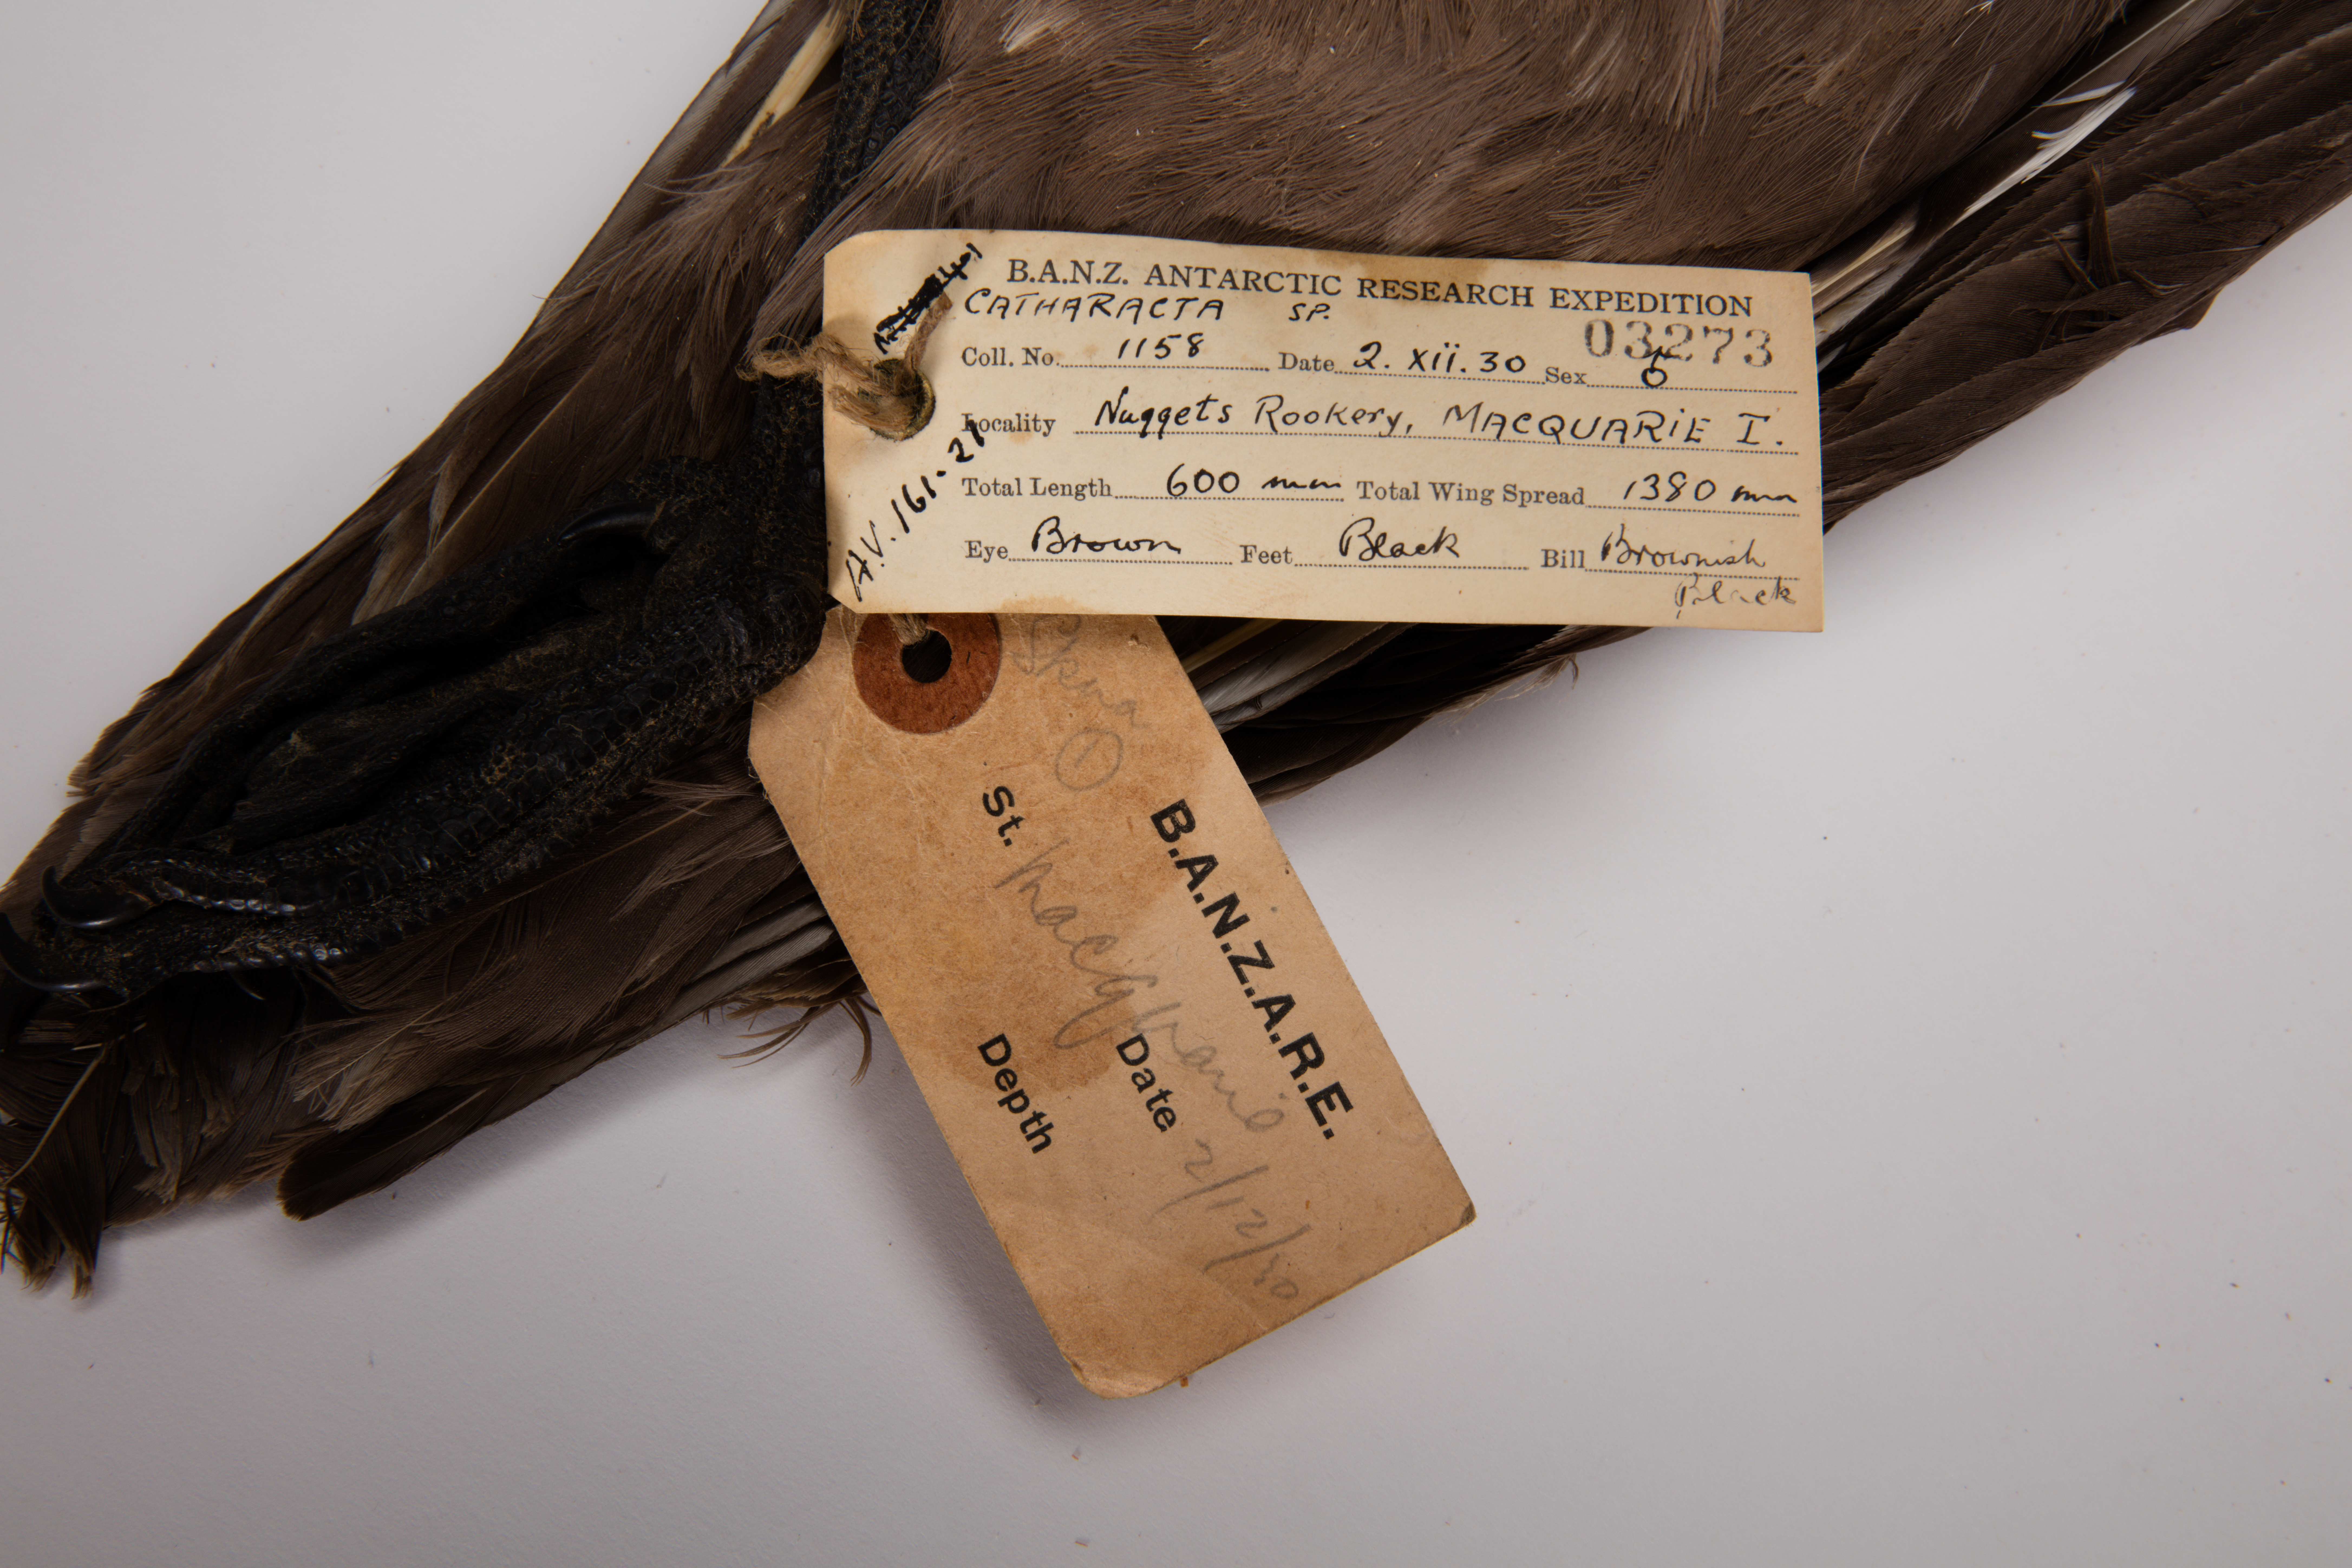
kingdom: Animalia
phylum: Chordata
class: Aves
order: Charadriiformes
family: Stercorariidae
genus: Stercorarius
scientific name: Stercorarius antarcticus
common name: Brown skua
